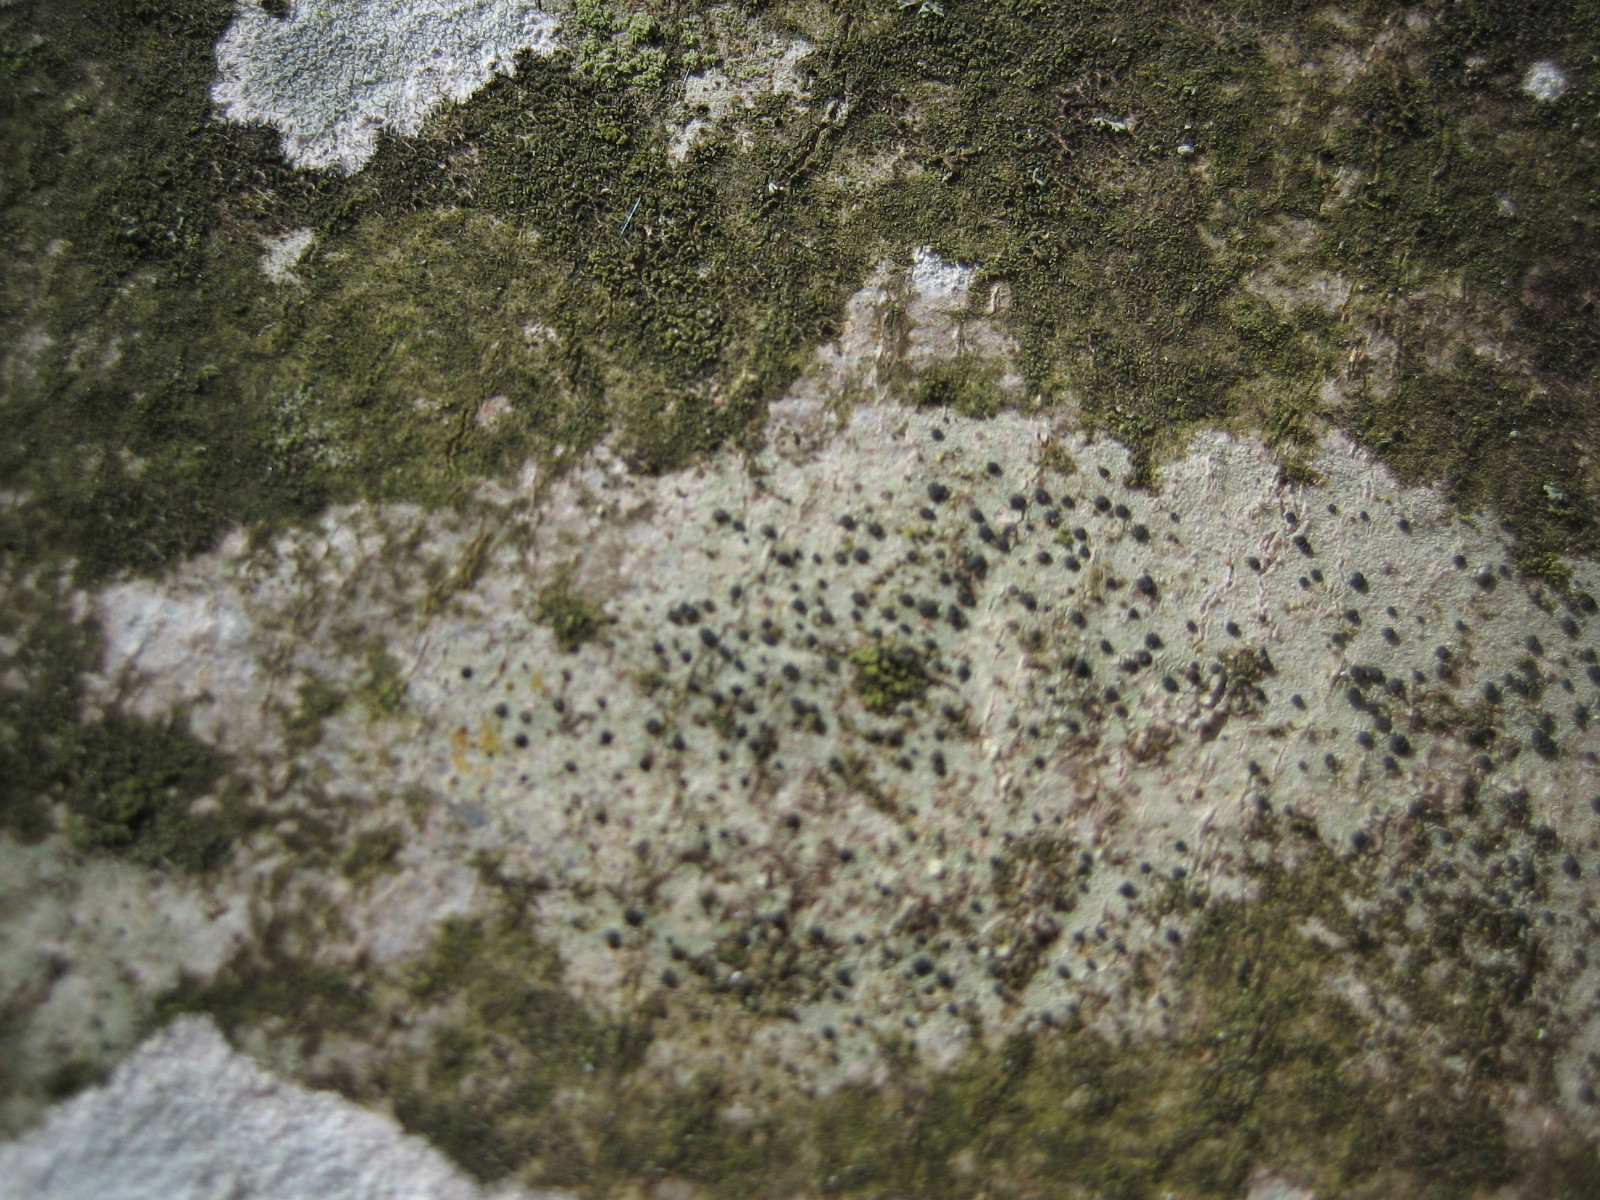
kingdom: Fungi
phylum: Ascomycota
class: Lecanoromycetes
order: Lecanorales
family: Lecanoraceae
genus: Lecidella
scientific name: Lecidella elaeochroma
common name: grågrøn skivelav
